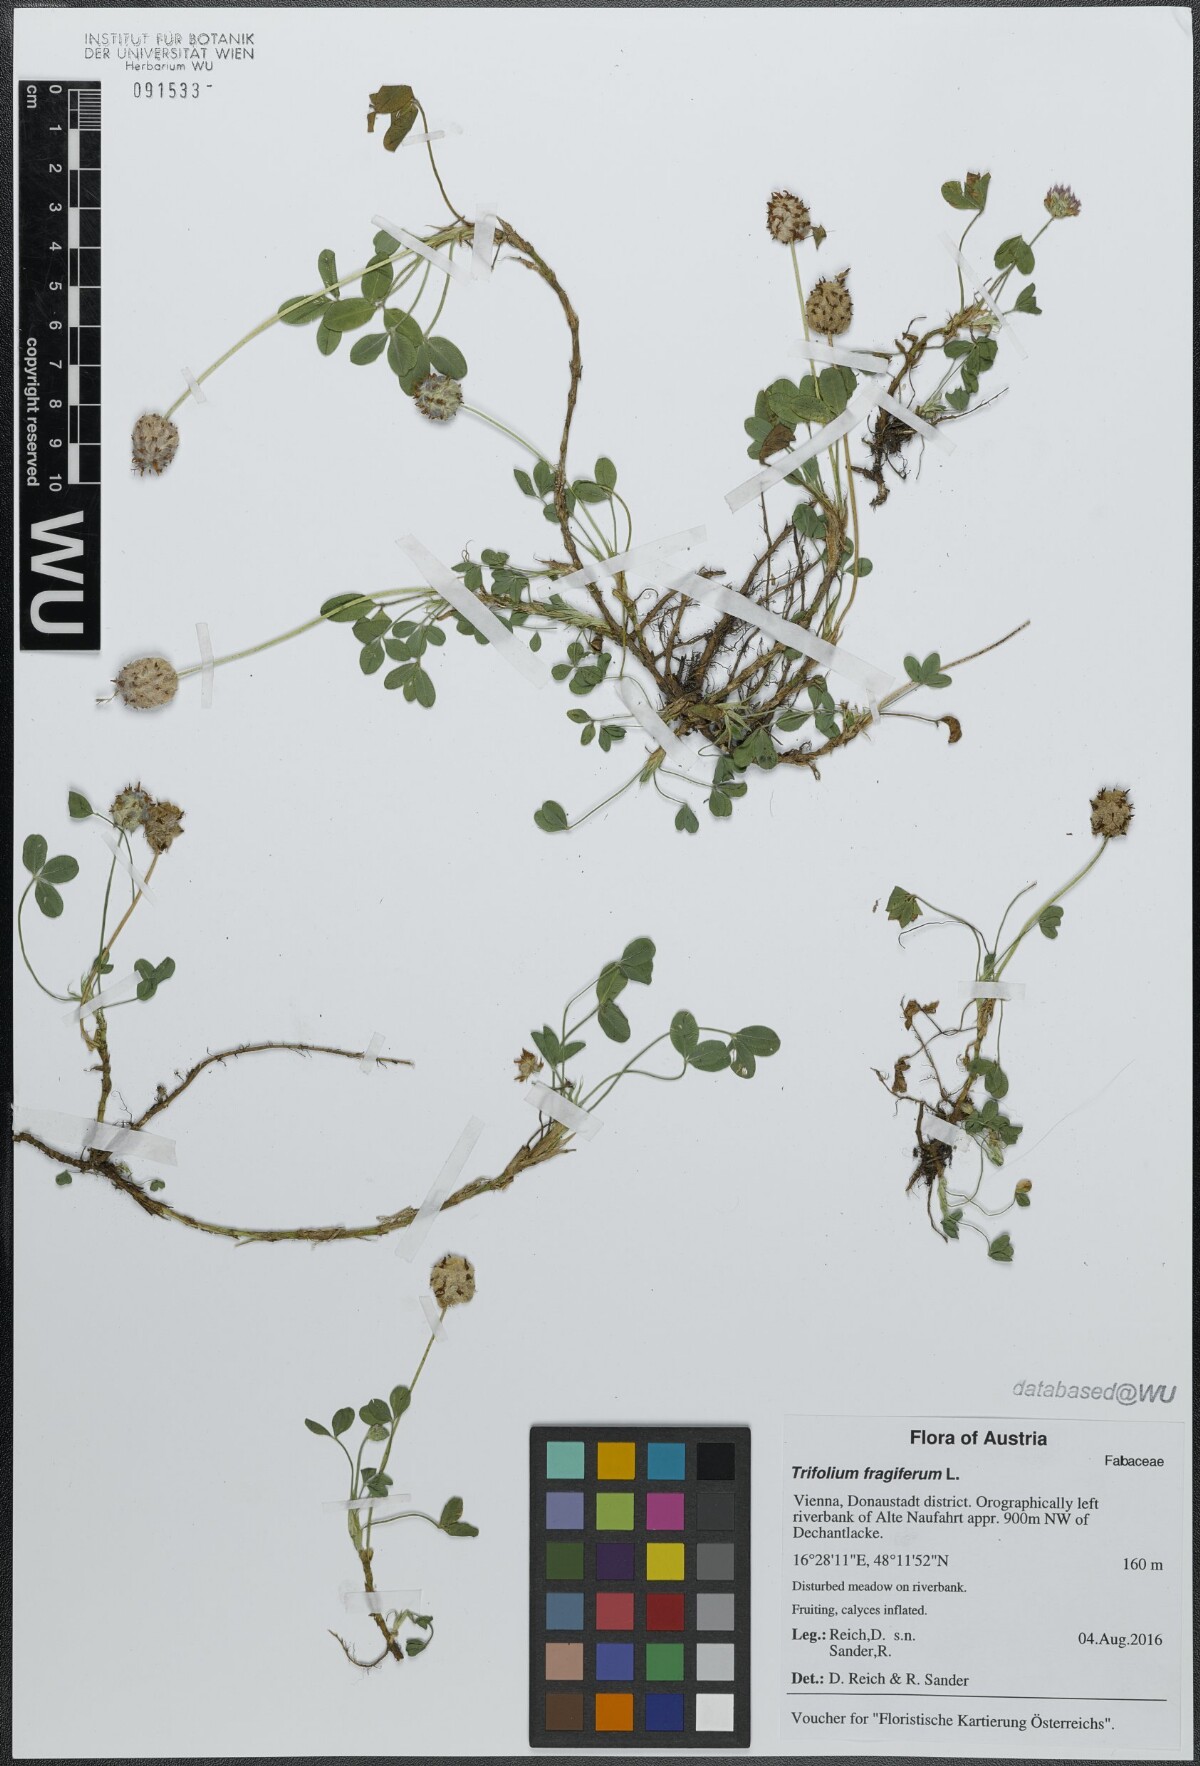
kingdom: Plantae
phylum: Tracheophyta
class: Magnoliopsida
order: Fabales
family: Fabaceae
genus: Trifolium
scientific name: Trifolium fragiferum
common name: Strawberry clover
